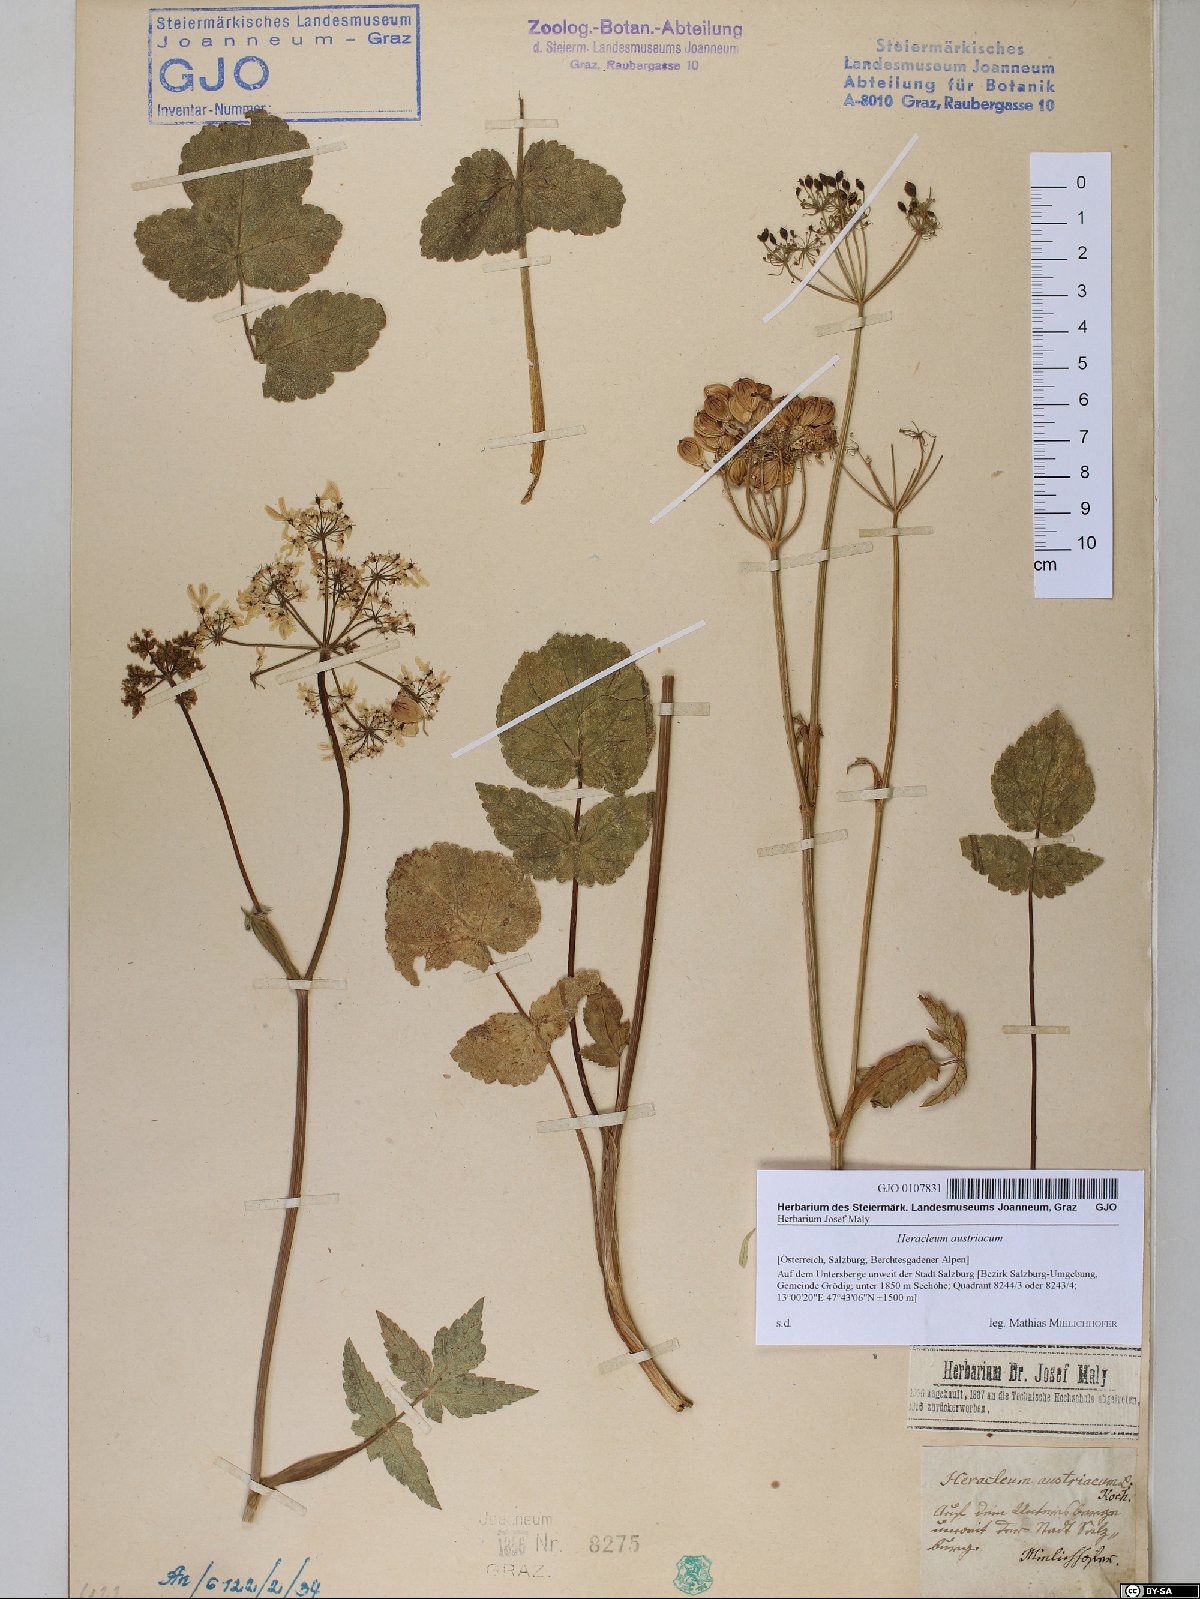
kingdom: Plantae
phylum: Tracheophyta
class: Magnoliopsida
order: Apiales
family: Apiaceae
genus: Heracleum
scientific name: Heracleum austriacum
